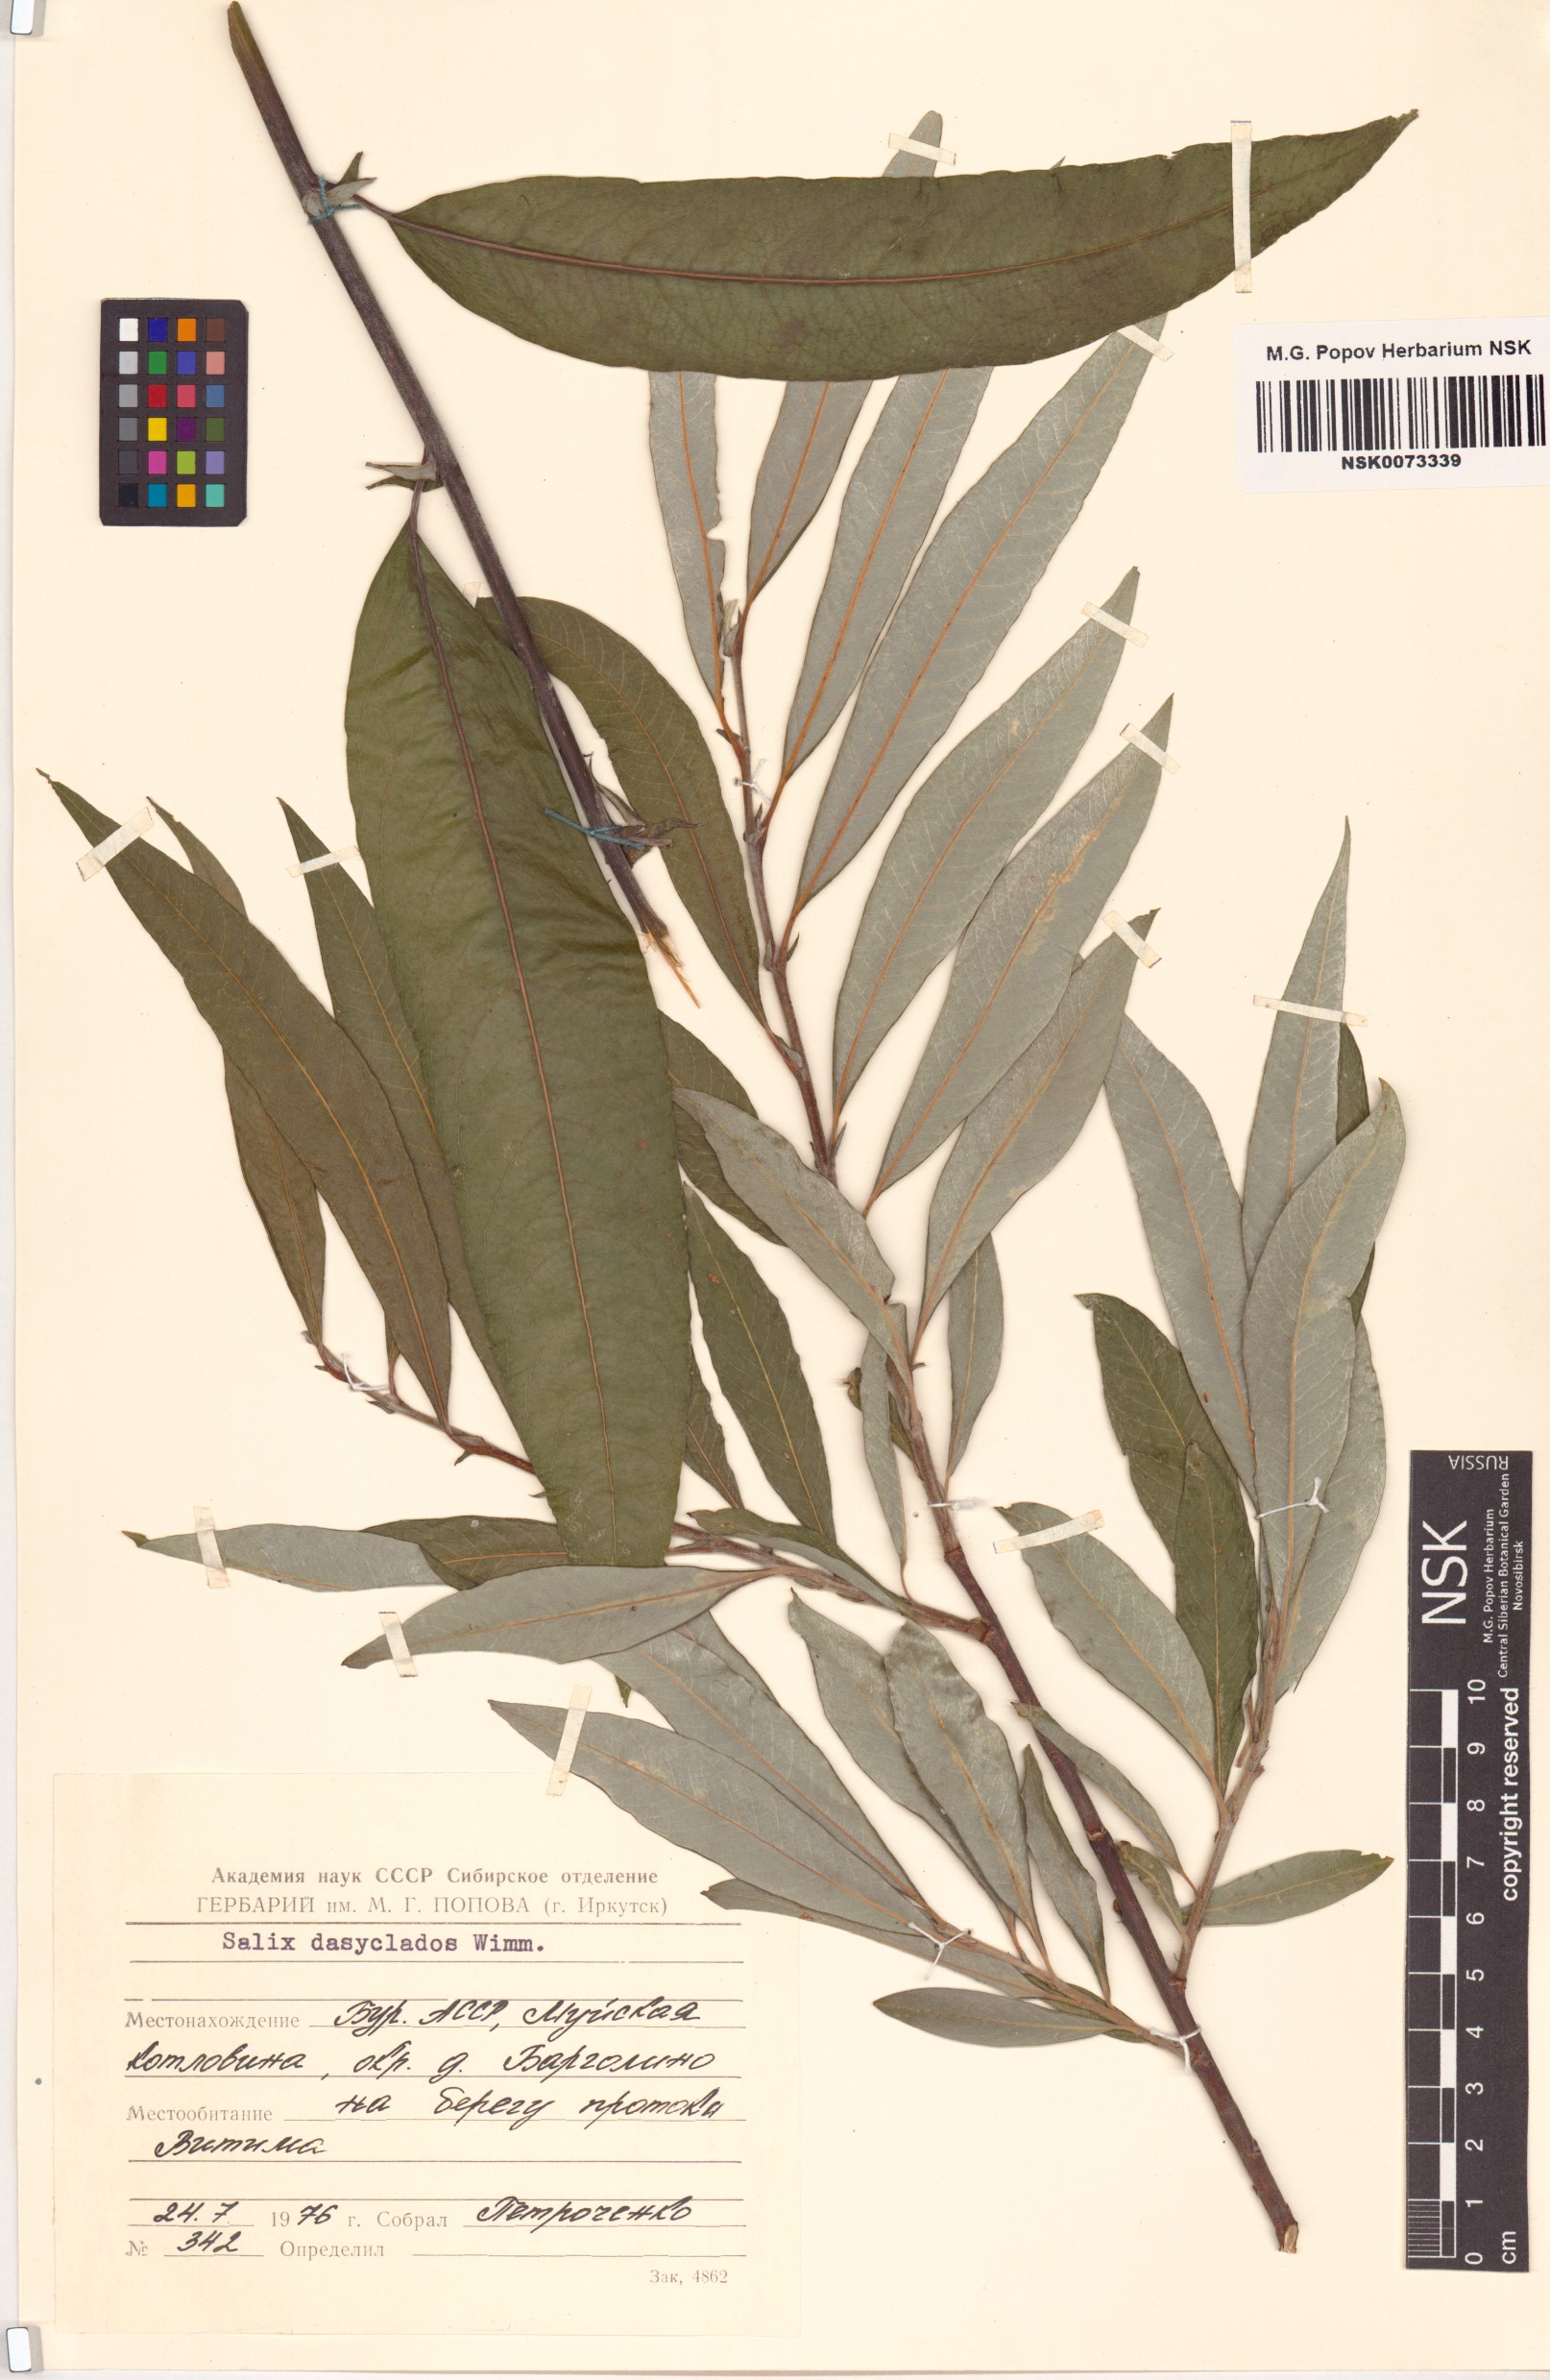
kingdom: Plantae
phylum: Tracheophyta
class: Magnoliopsida
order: Malpighiales
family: Salicaceae
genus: Salix
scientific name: Salix gmelinii
